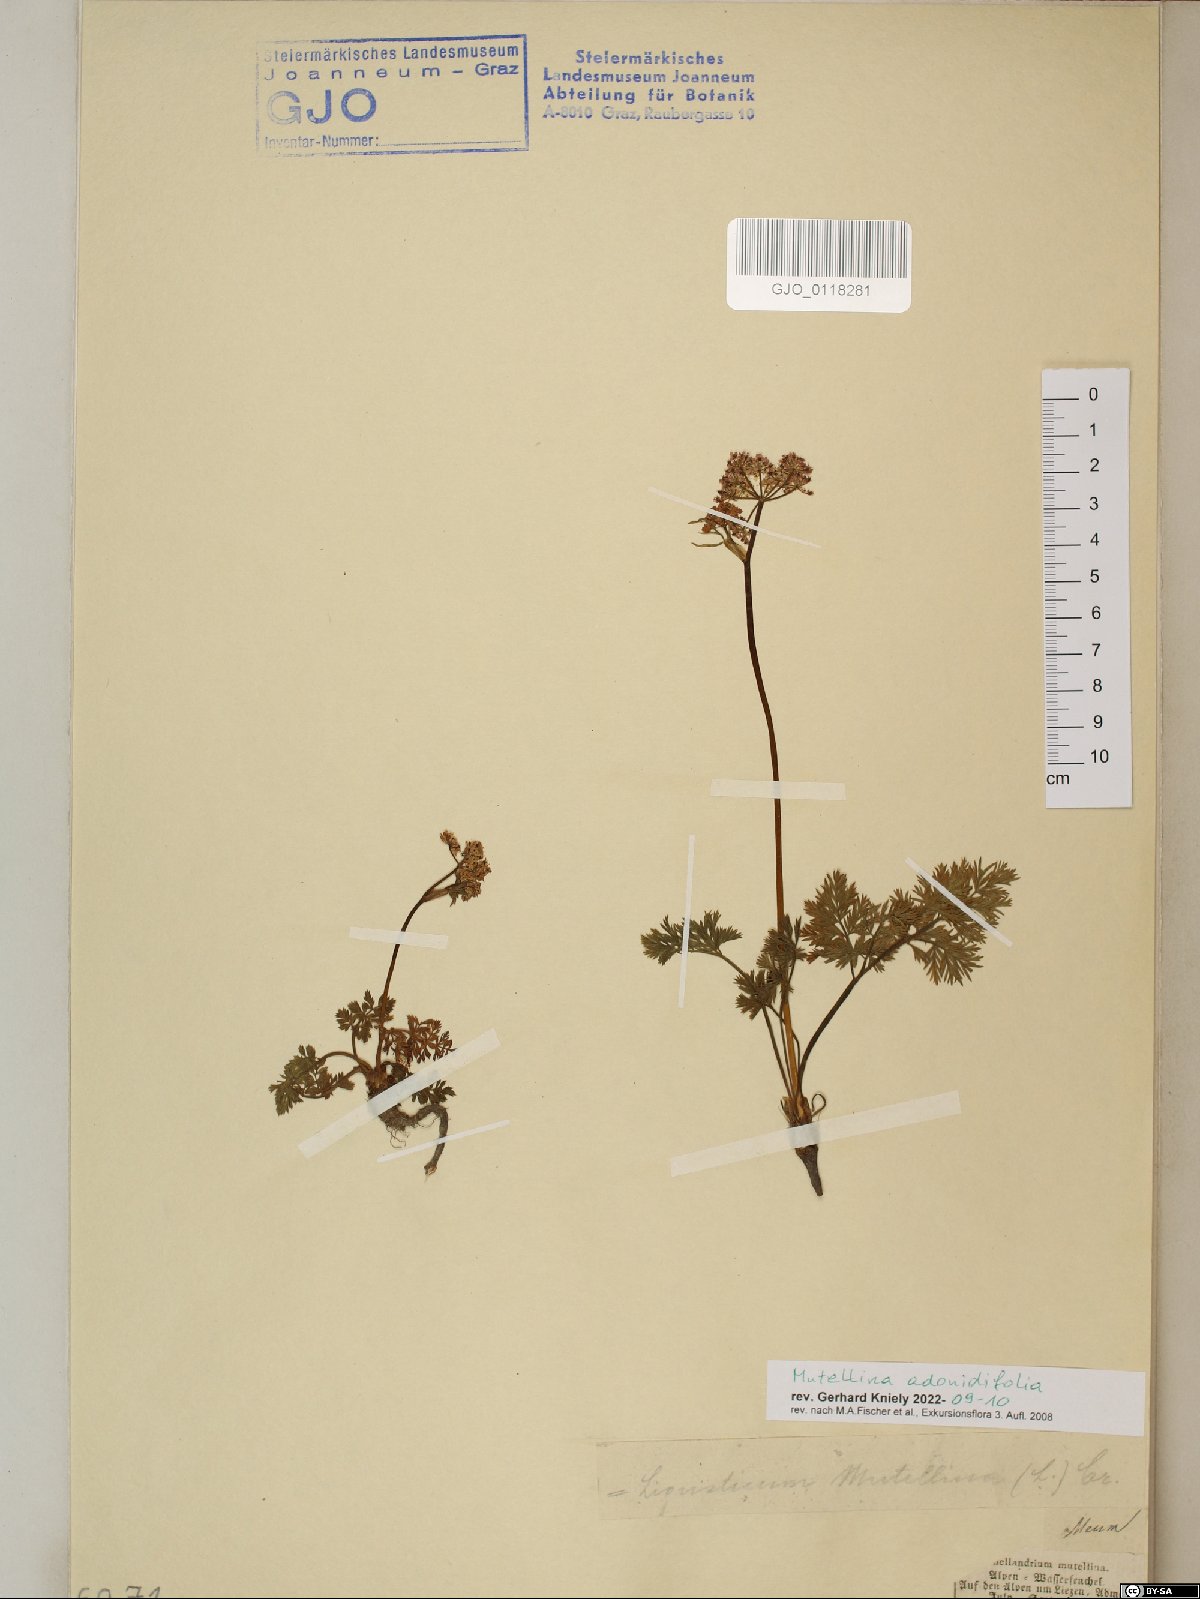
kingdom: Plantae
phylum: Tracheophyta
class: Magnoliopsida
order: Apiales
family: Apiaceae
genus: Mutellina
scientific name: Mutellina adonidifolia
